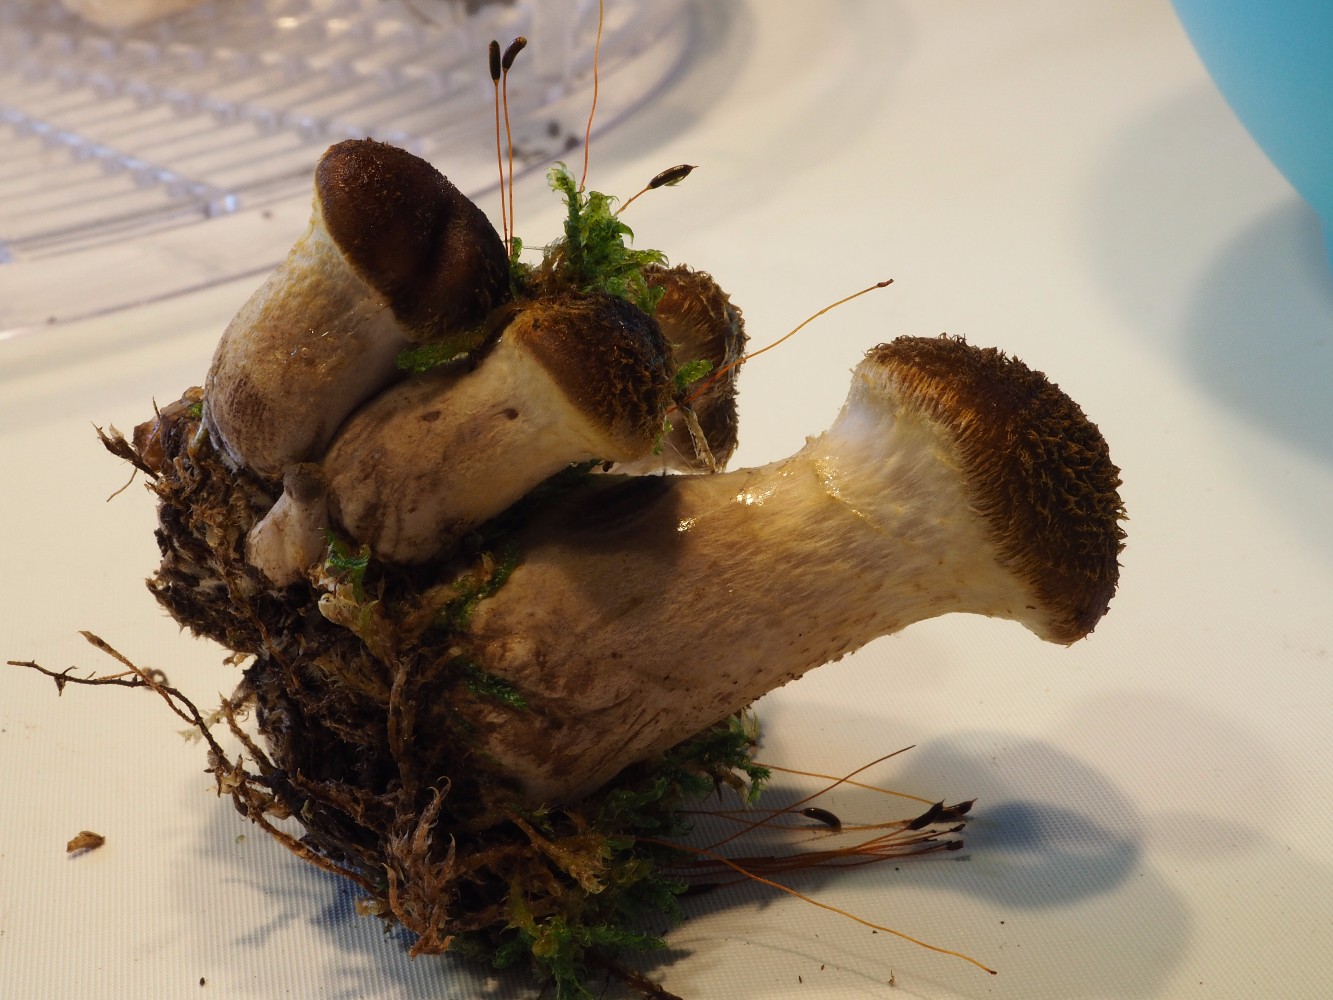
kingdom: Fungi
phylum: Basidiomycota
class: Agaricomycetes
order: Agaricales
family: Physalacriaceae
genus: Armillaria
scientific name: Armillaria lutea
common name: køllestokket honningsvamp
